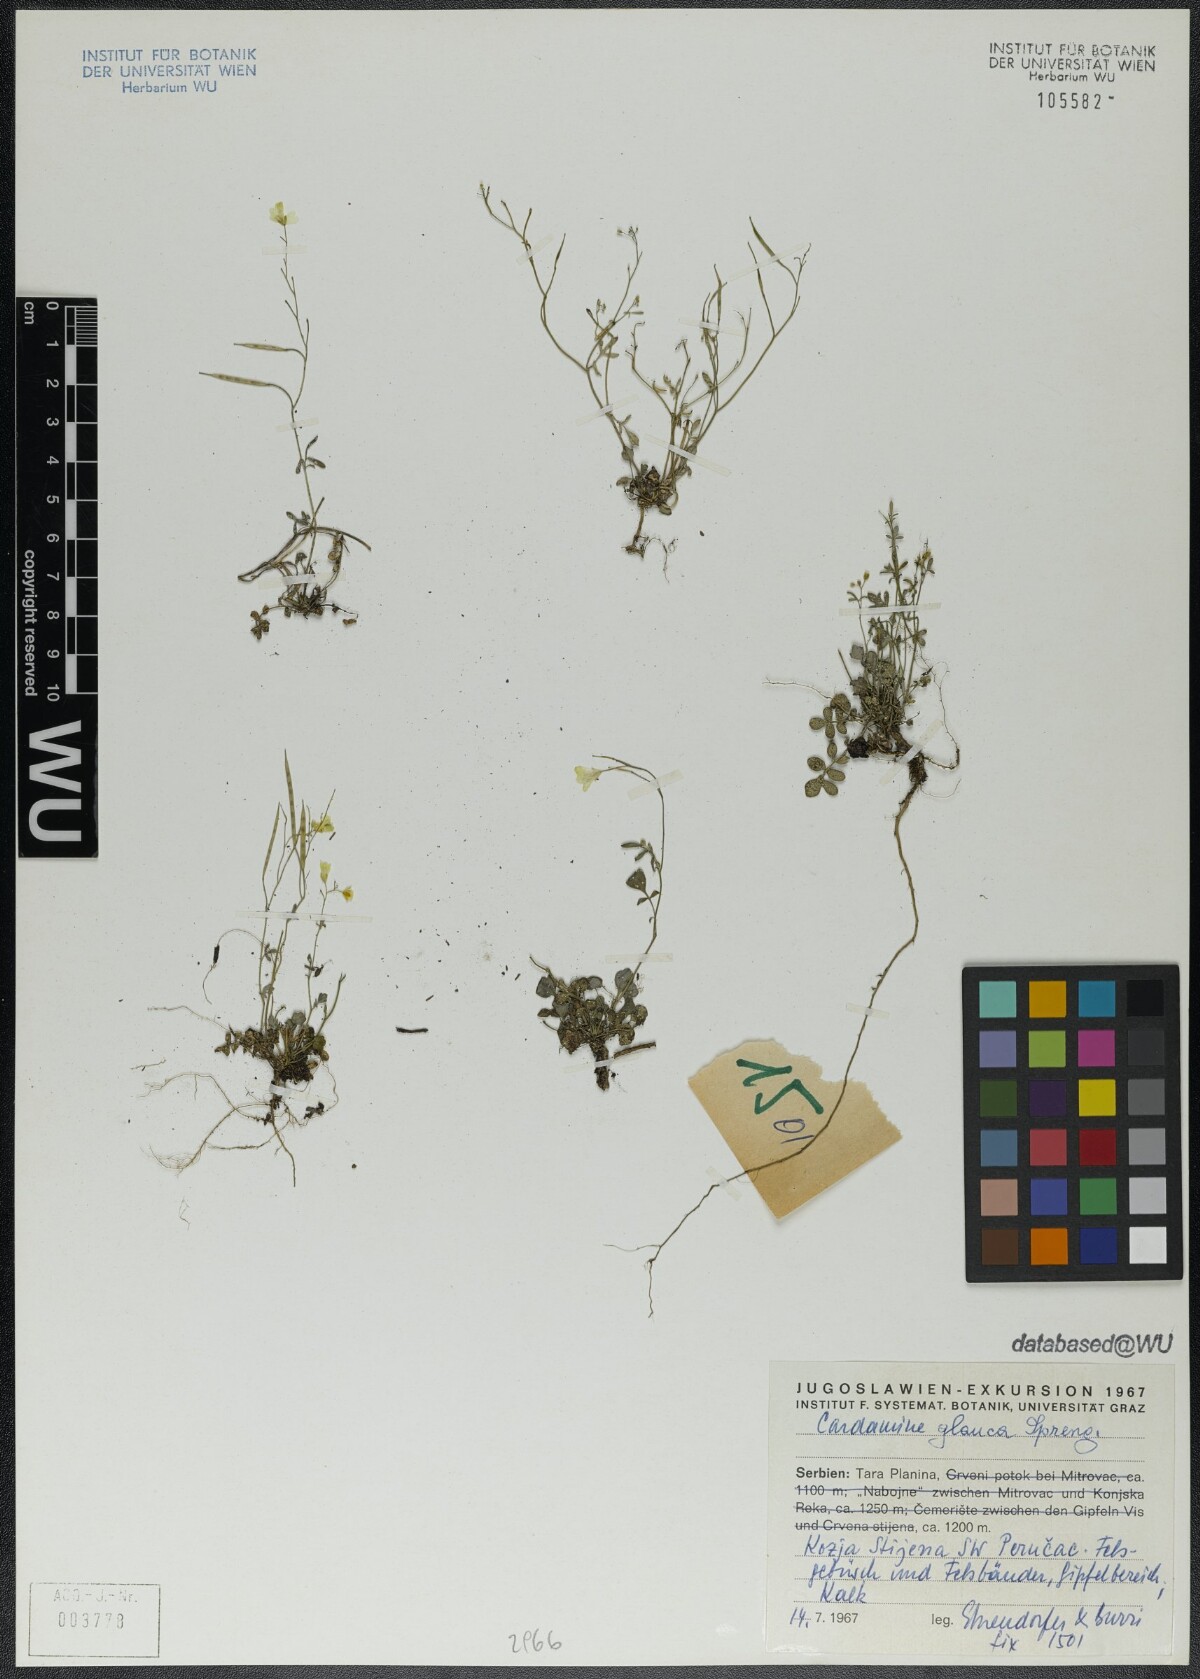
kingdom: Plantae
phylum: Tracheophyta
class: Magnoliopsida
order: Brassicales
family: Brassicaceae
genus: Cardamine
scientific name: Cardamine glauca
